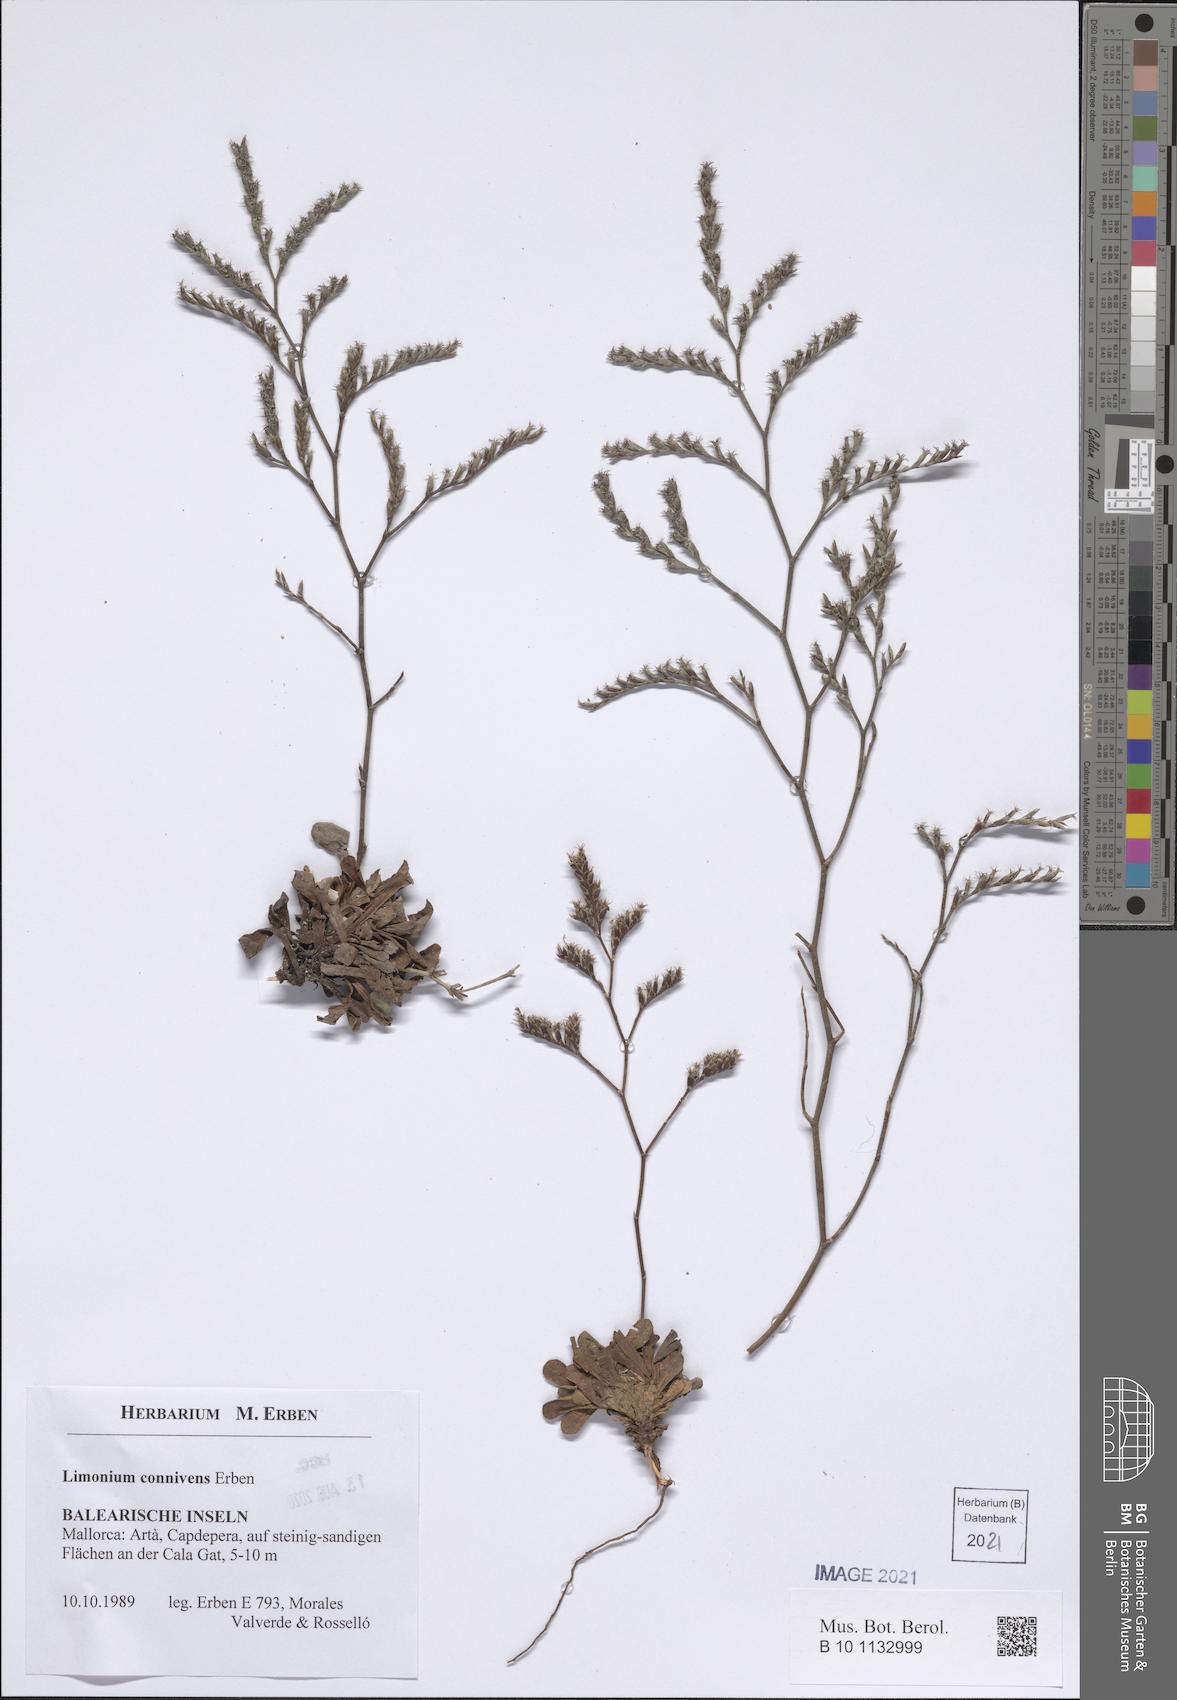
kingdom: Plantae
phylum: Tracheophyta
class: Magnoliopsida
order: Caryophyllales
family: Plumbaginaceae
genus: Limonium
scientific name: Limonium connivens
